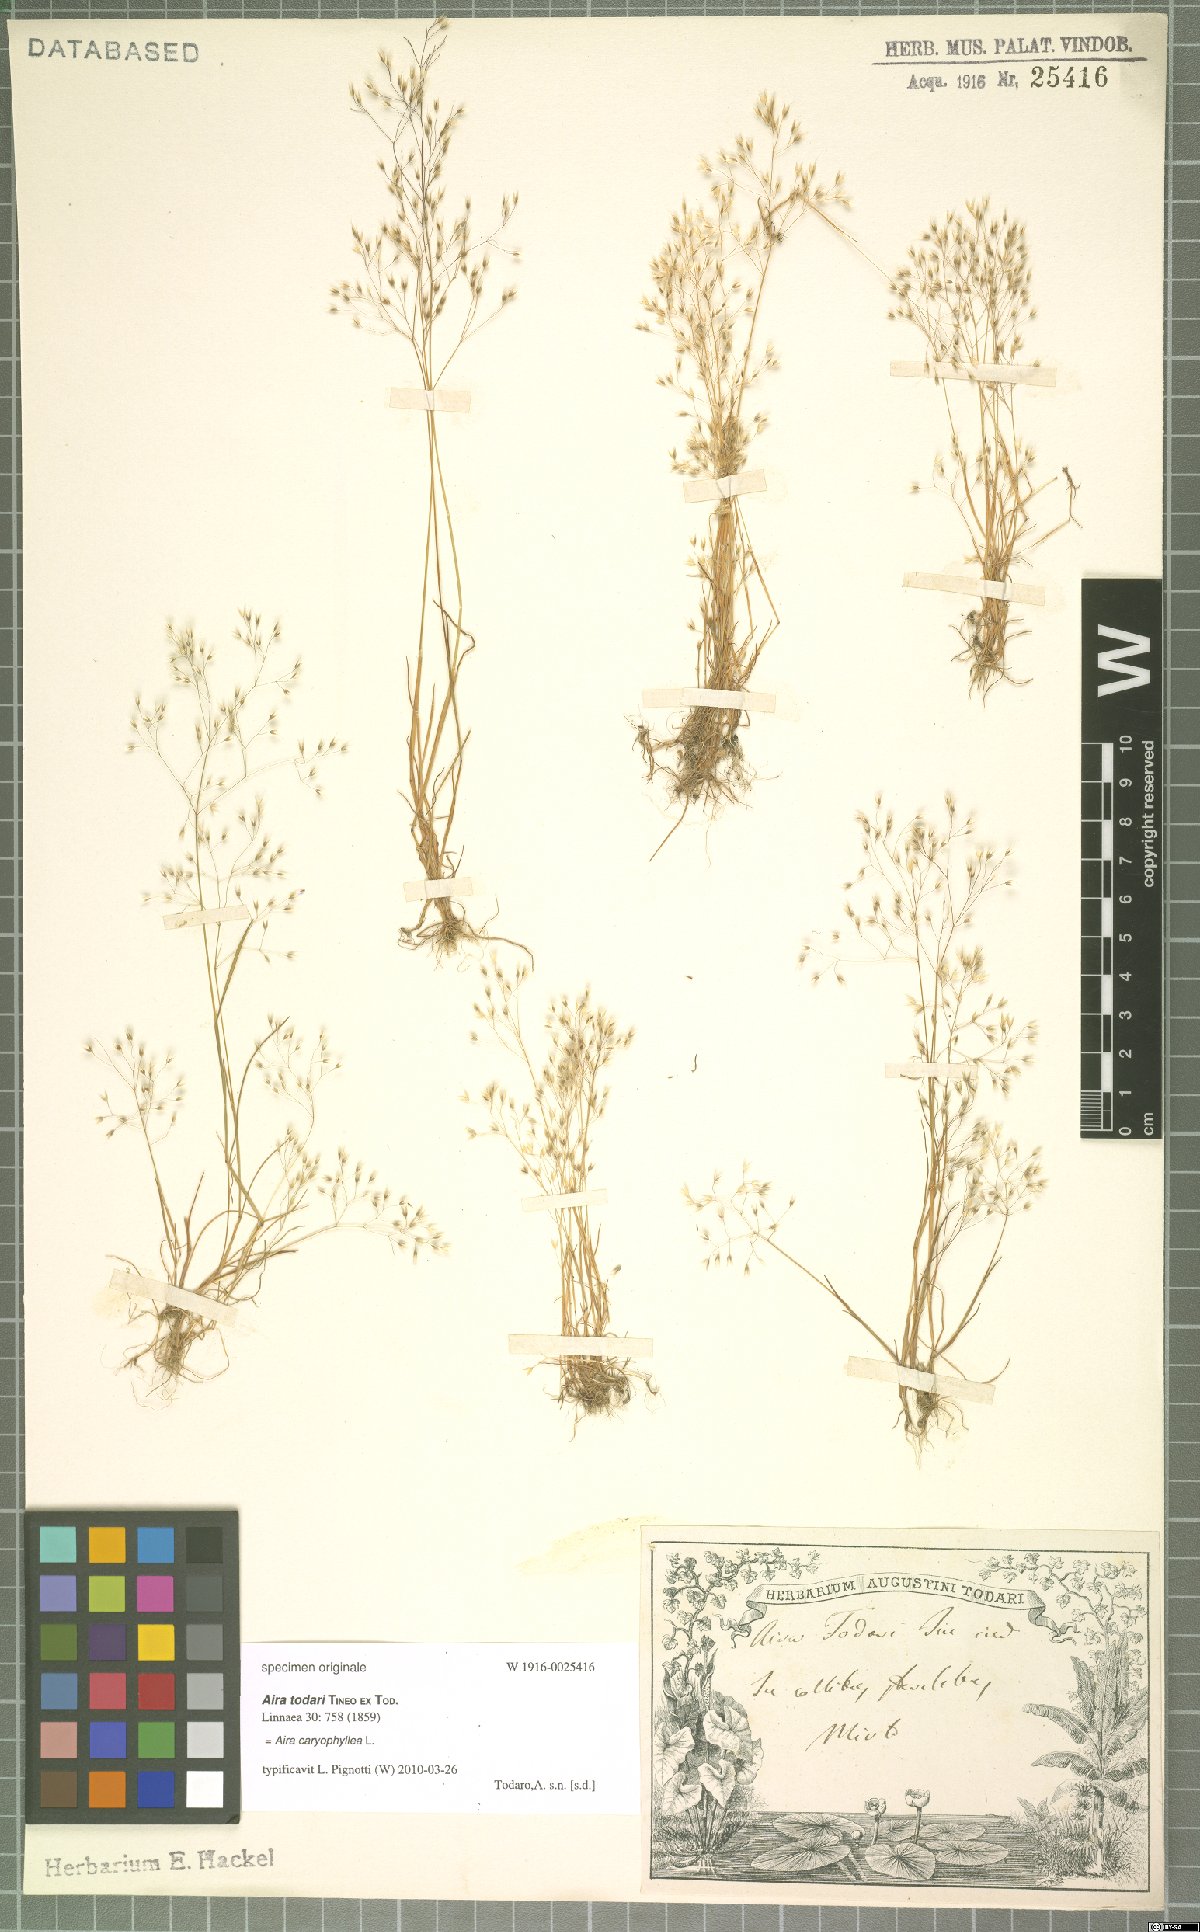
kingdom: Plantae
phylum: Tracheophyta
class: Liliopsida
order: Poales
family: Poaceae
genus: Aira
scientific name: Aira caryophyllea
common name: Silver hairgrass
